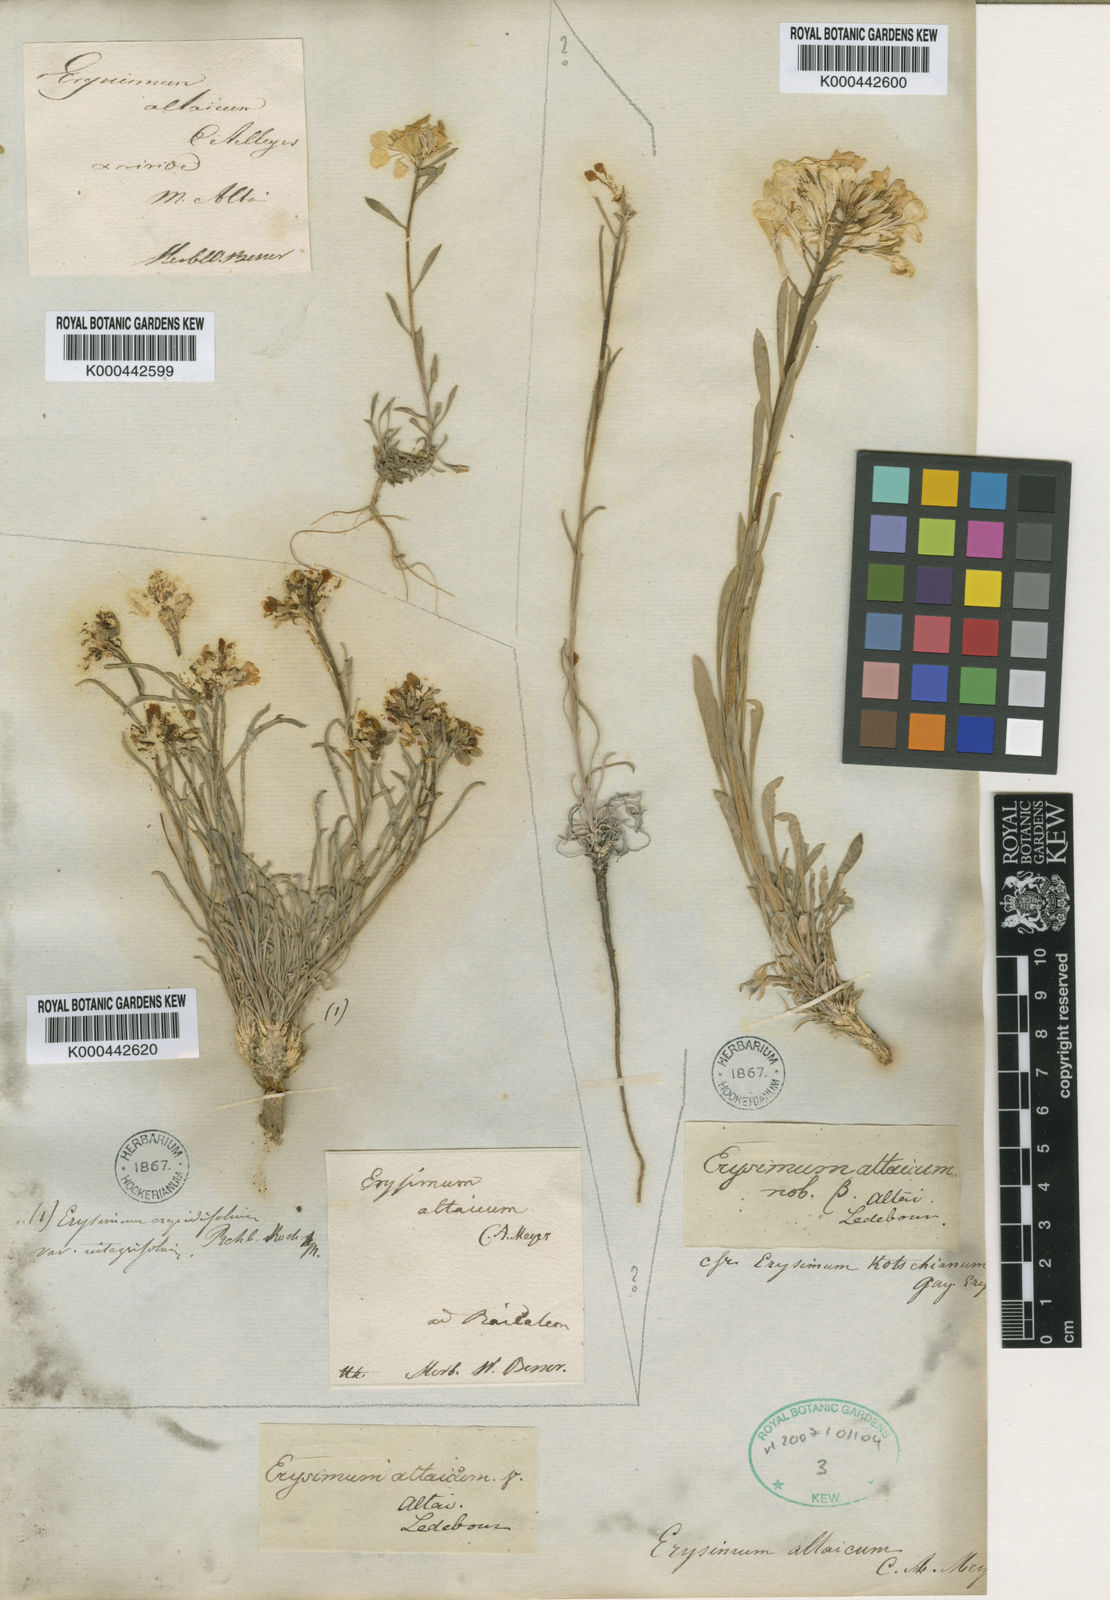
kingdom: Plantae
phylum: Tracheophyta
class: Magnoliopsida
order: Brassicales
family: Brassicaceae
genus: Erysimum
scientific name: Erysimum altaicum
